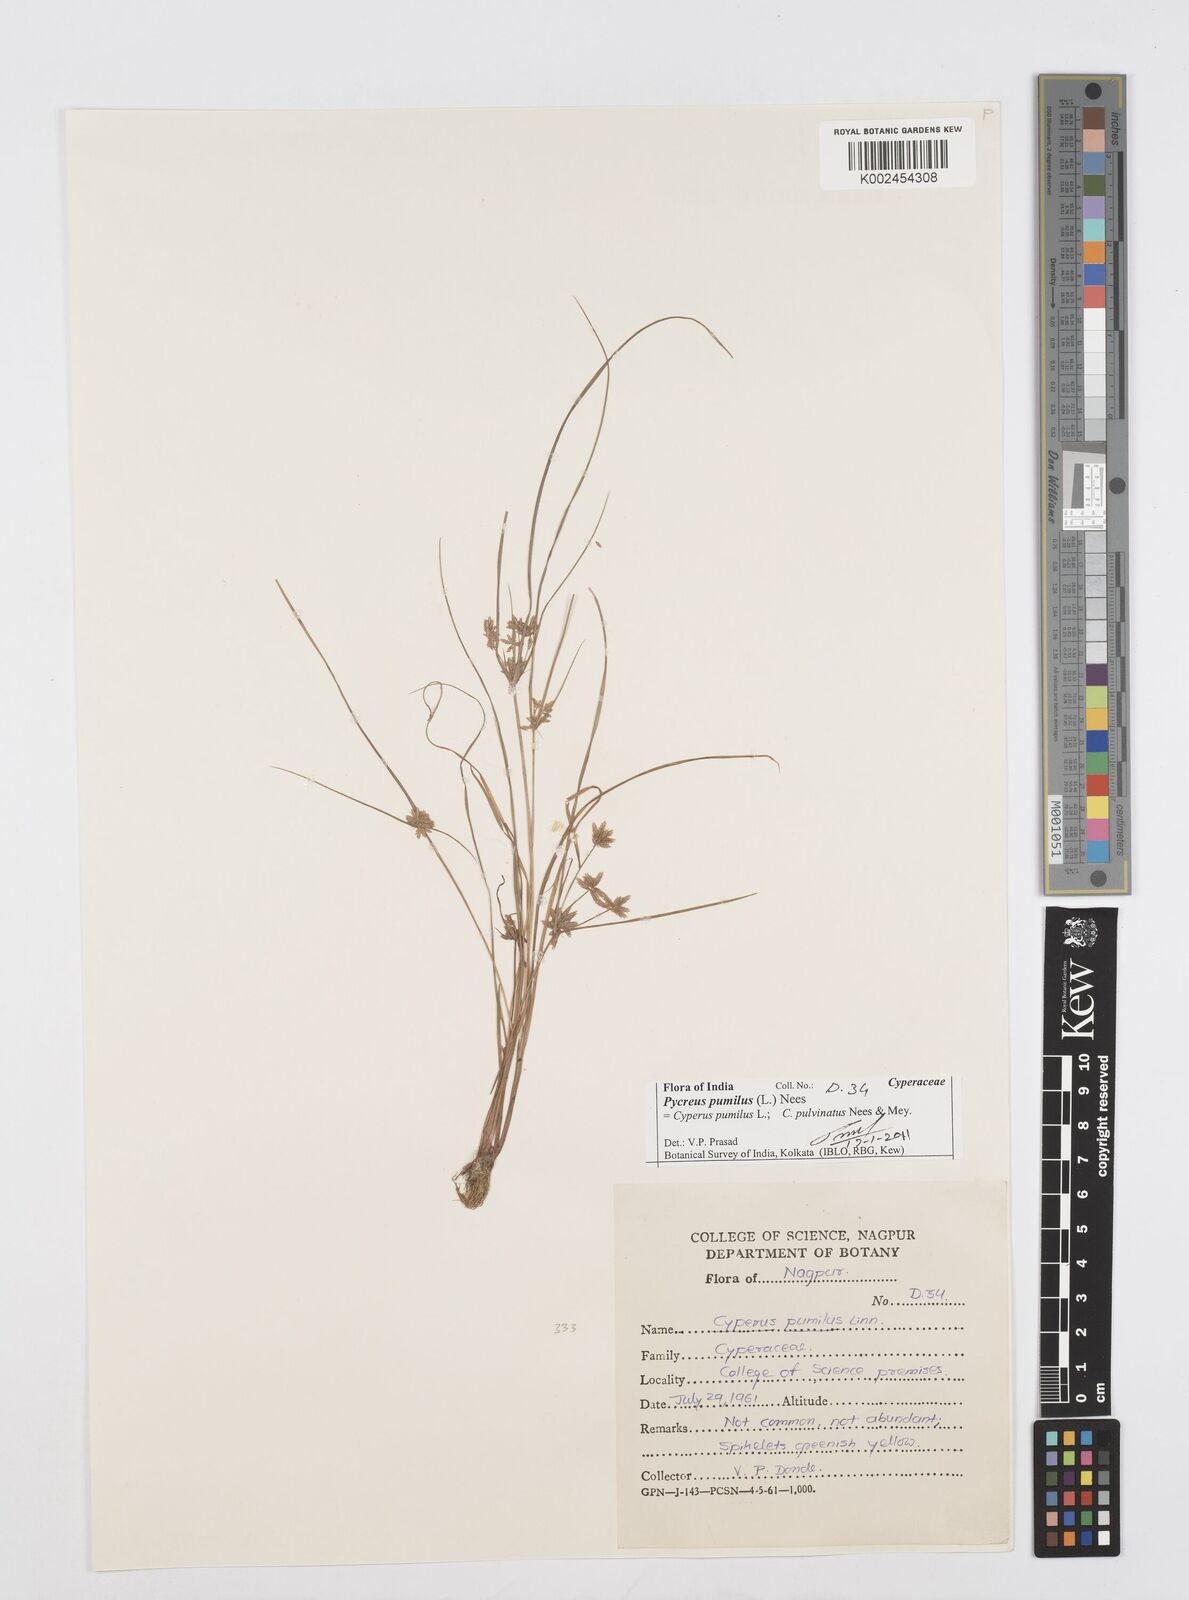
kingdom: Plantae
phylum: Tracheophyta
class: Liliopsida
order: Poales
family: Cyperaceae
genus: Cyperus
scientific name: Cyperus pumilus
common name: Low flatsedge
